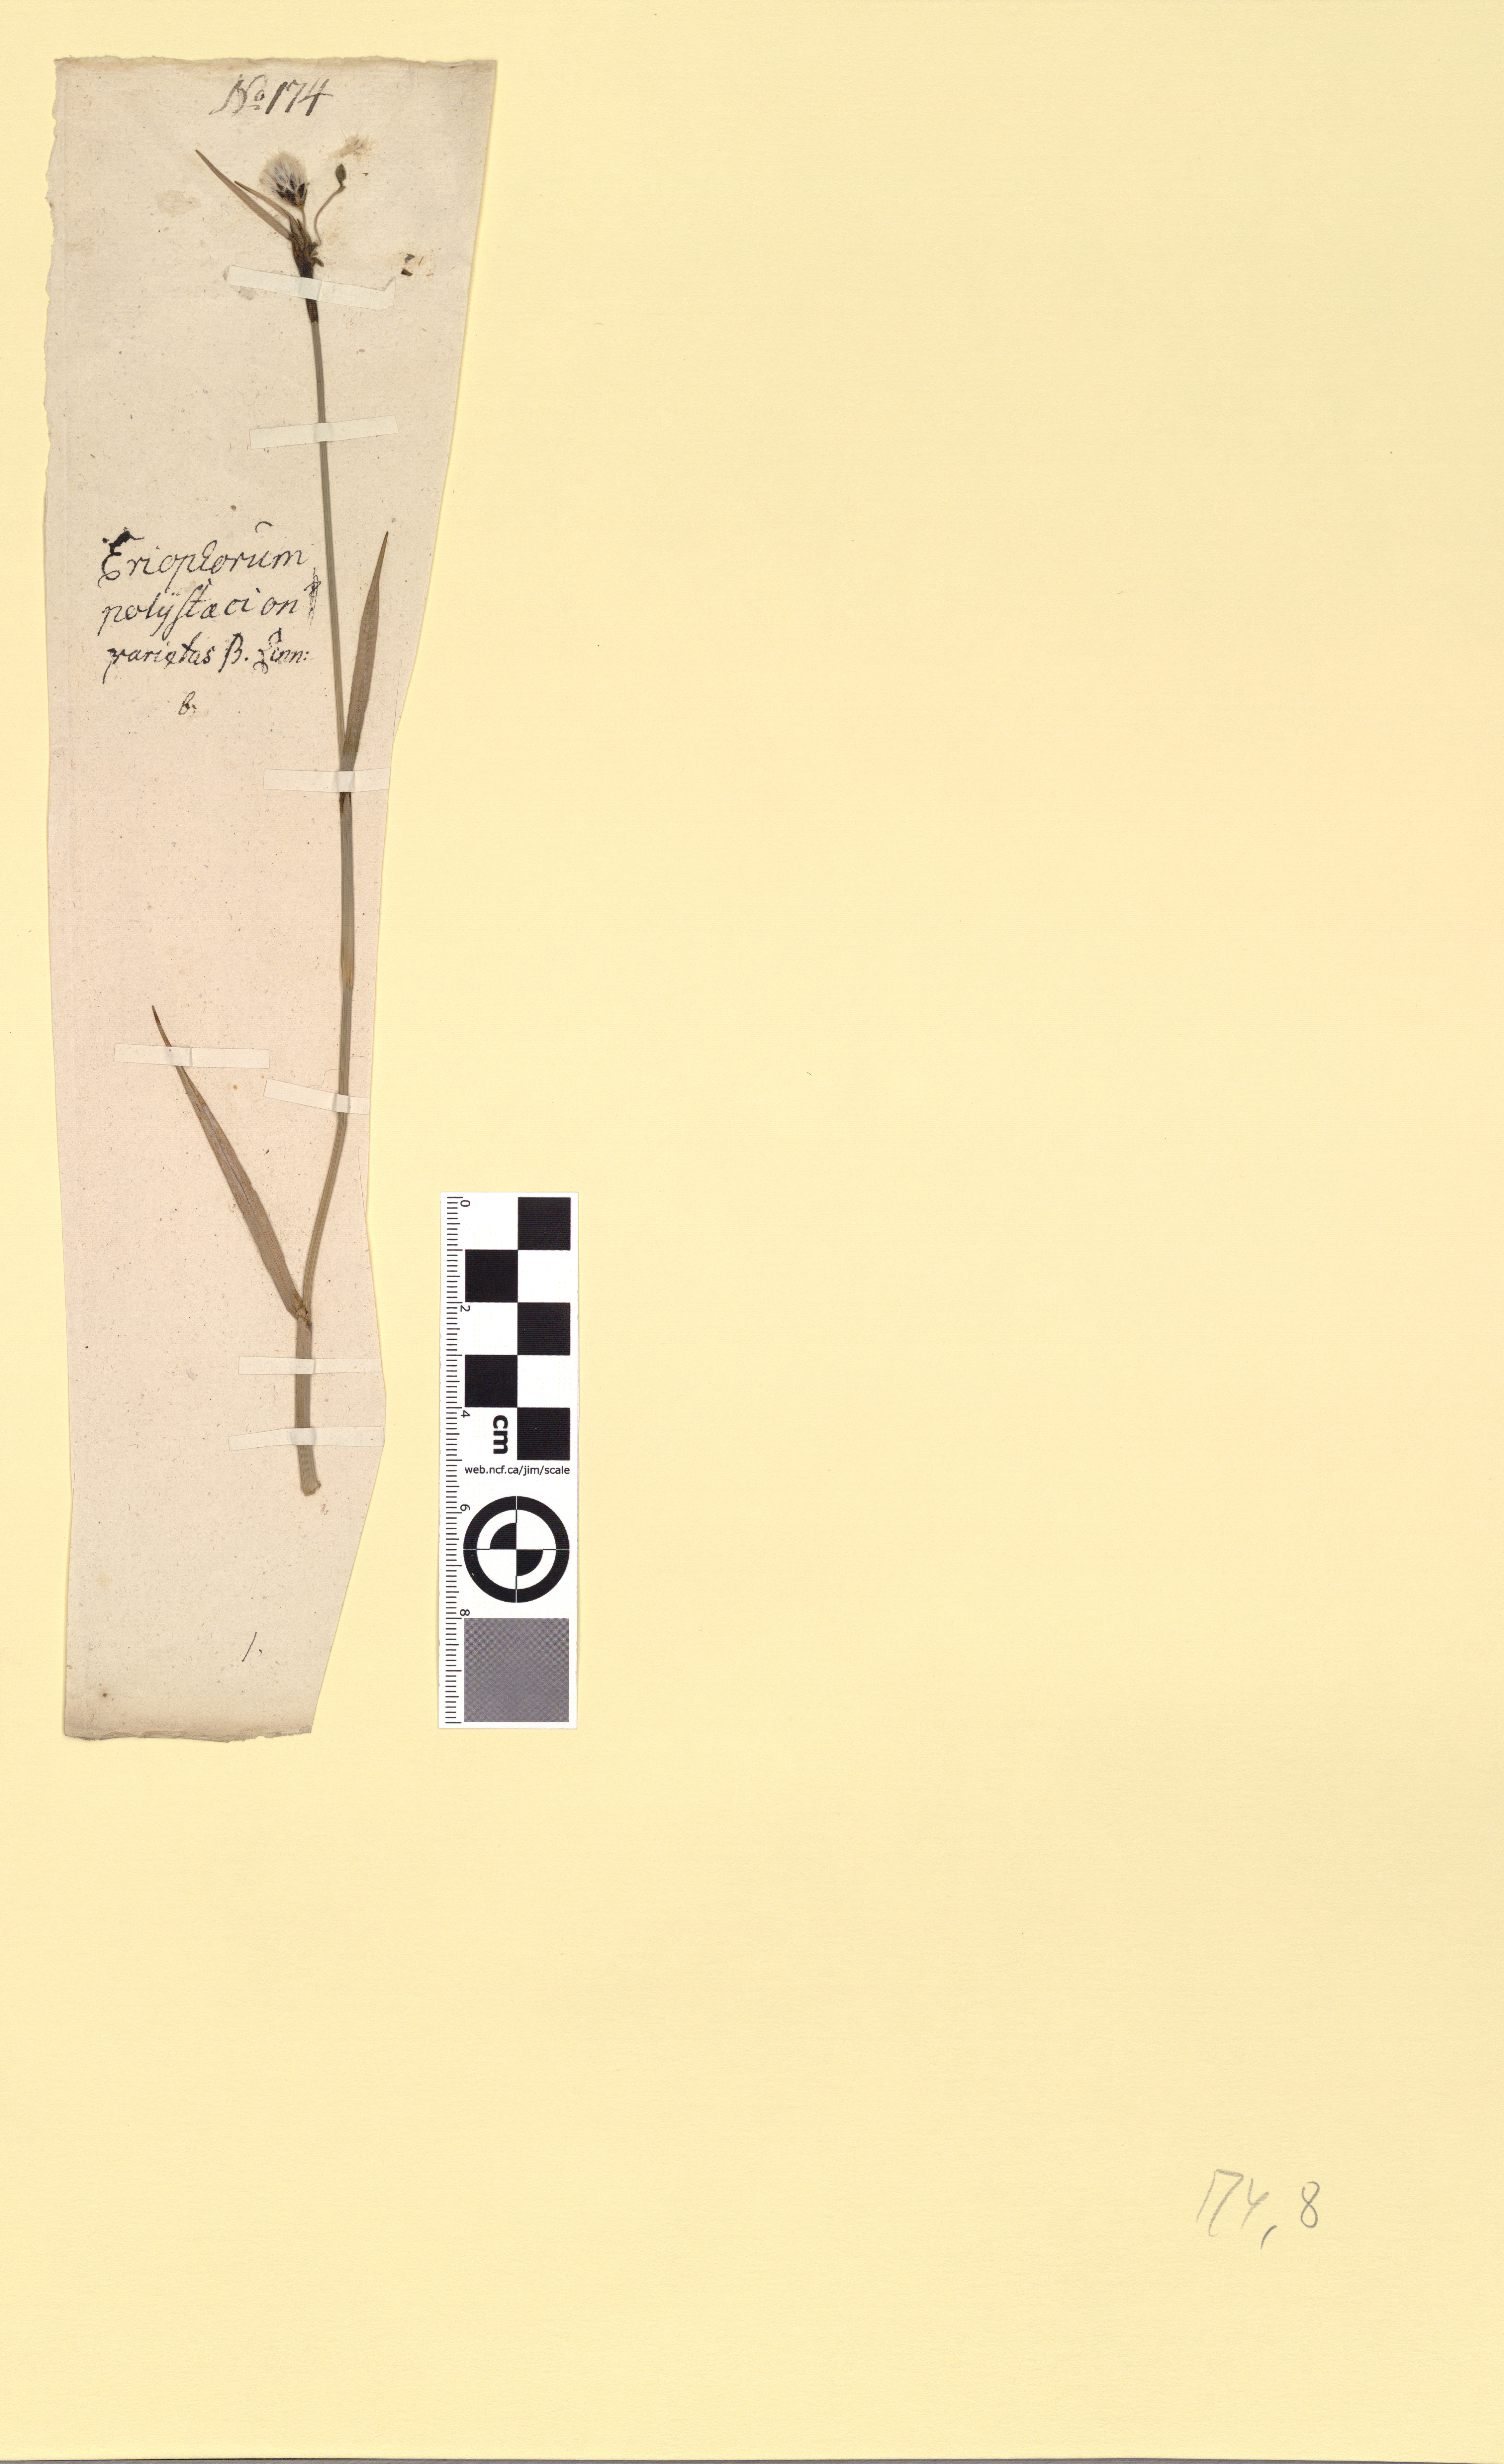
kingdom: Plantae
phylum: Tracheophyta
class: Liliopsida
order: Poales
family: Cyperaceae
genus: Eriophorum
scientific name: Eriophorum latifolium
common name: Broad-leaved cottongrass
